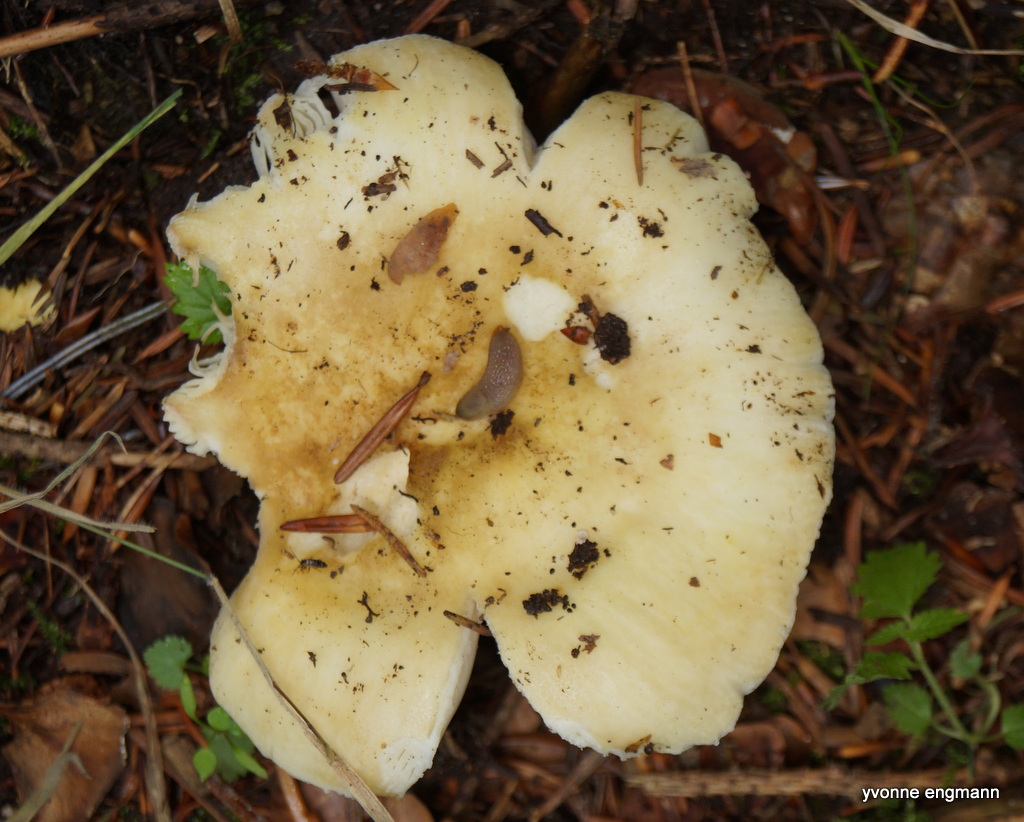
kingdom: Fungi
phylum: Basidiomycota
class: Agaricomycetes
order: Russulales
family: Russulaceae
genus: Russula
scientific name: Russula
